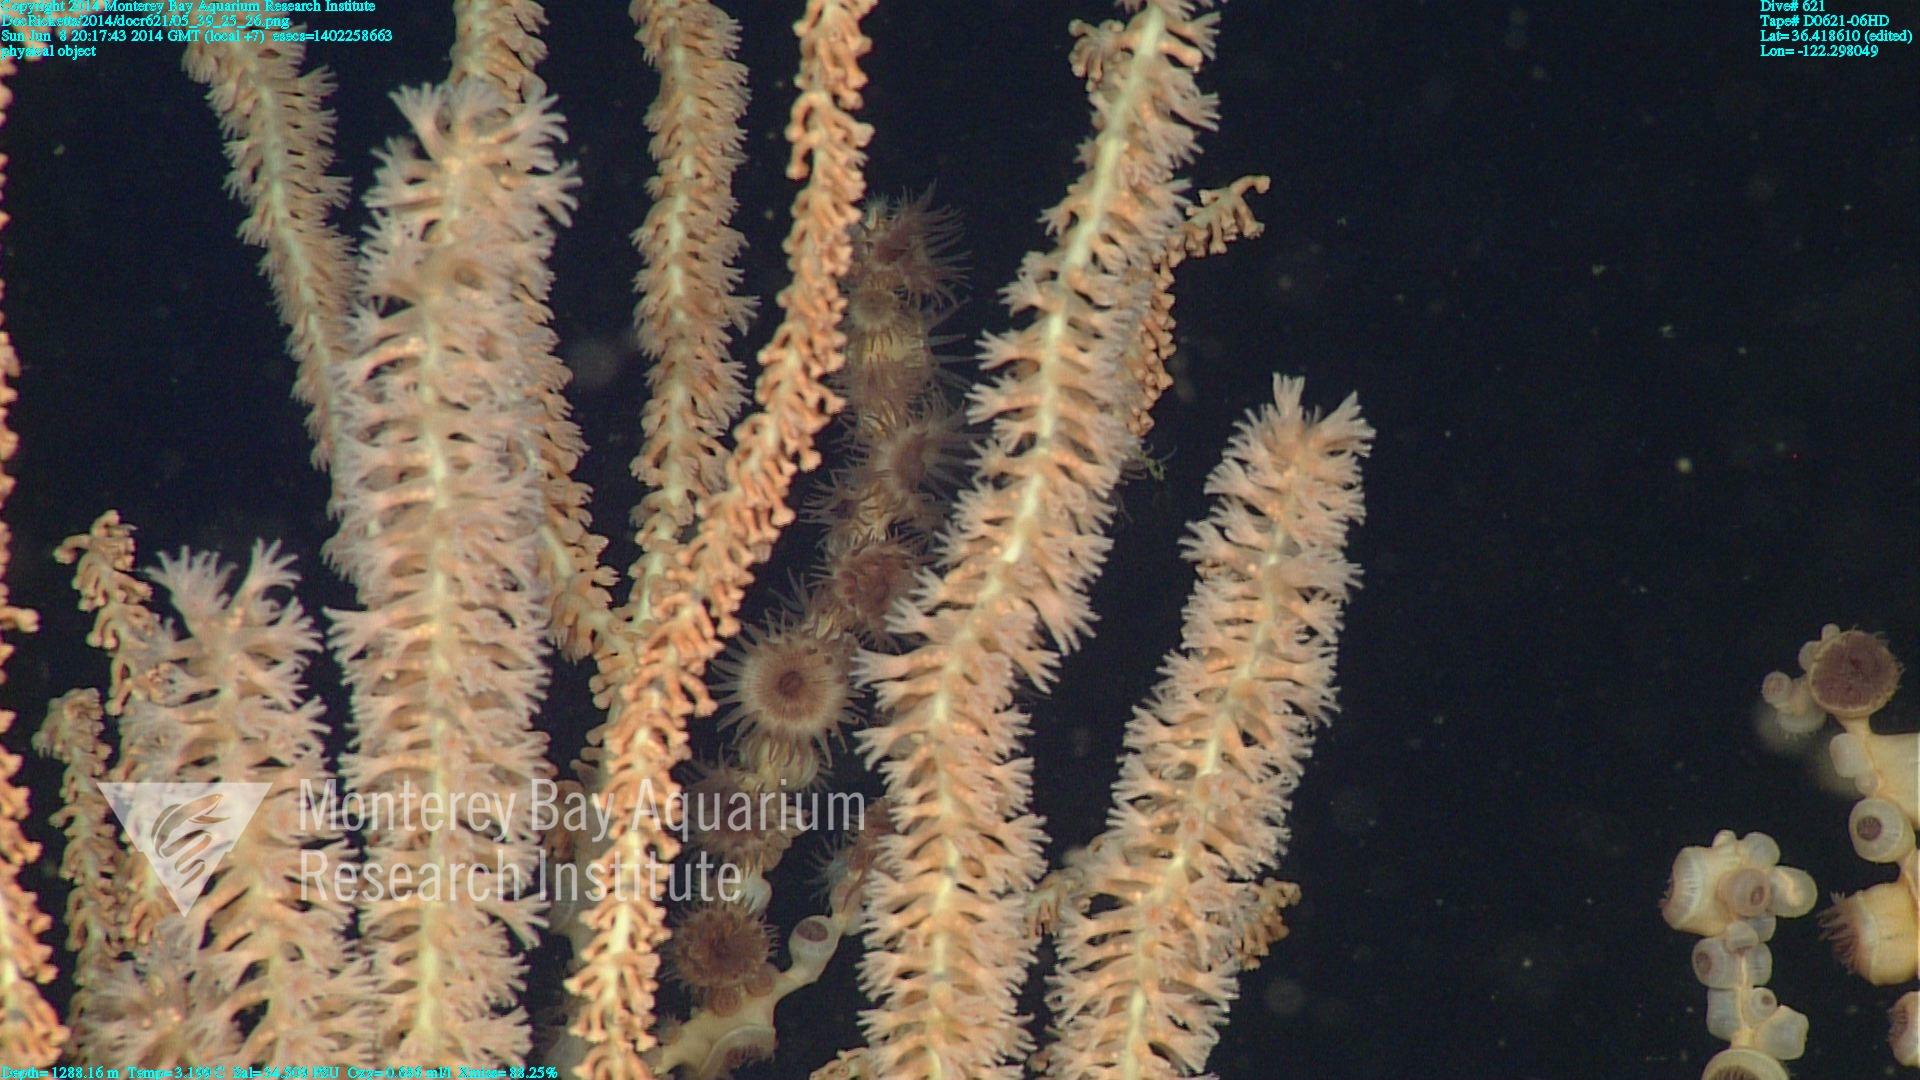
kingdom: Animalia
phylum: Cnidaria
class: Anthozoa
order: Scleralcyonacea
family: Keratoisididae
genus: Keratoisis
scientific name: Keratoisis
